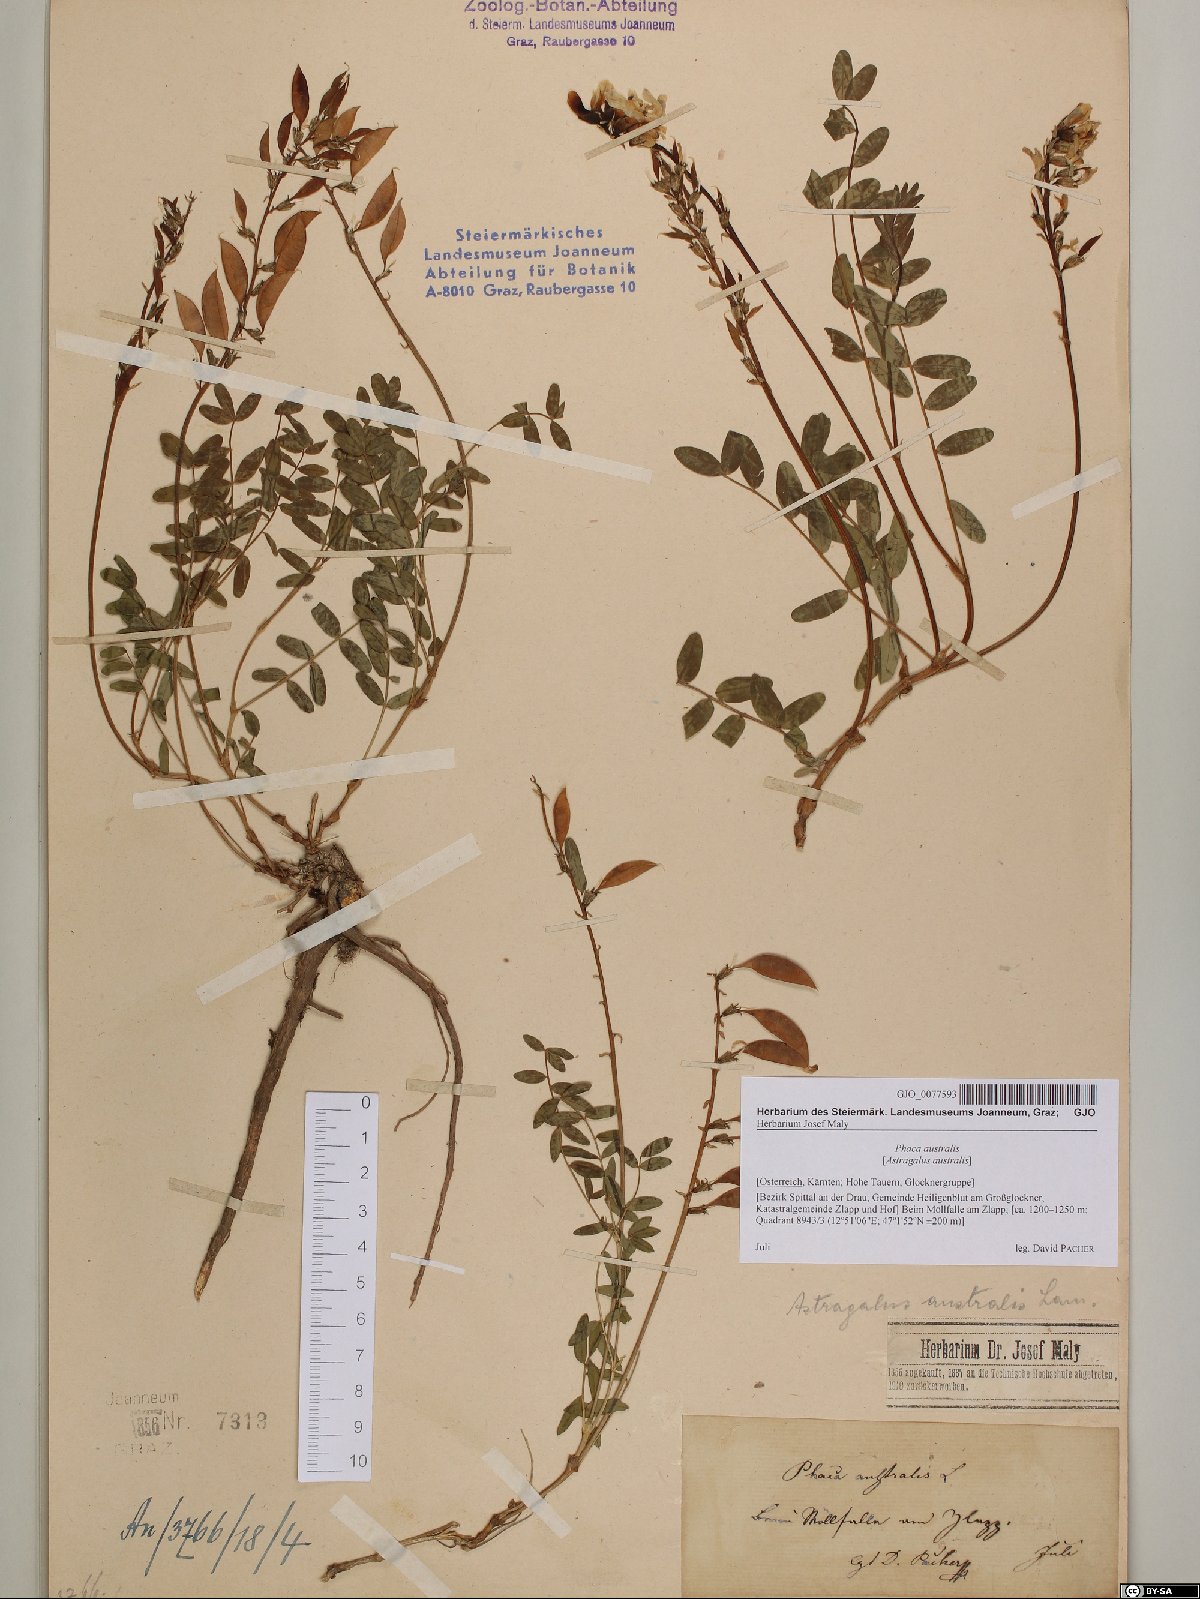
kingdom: Plantae
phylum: Tracheophyta
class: Magnoliopsida
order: Fabales
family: Fabaceae
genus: Astragalus
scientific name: Astragalus australis
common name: Indian milk-vetch
